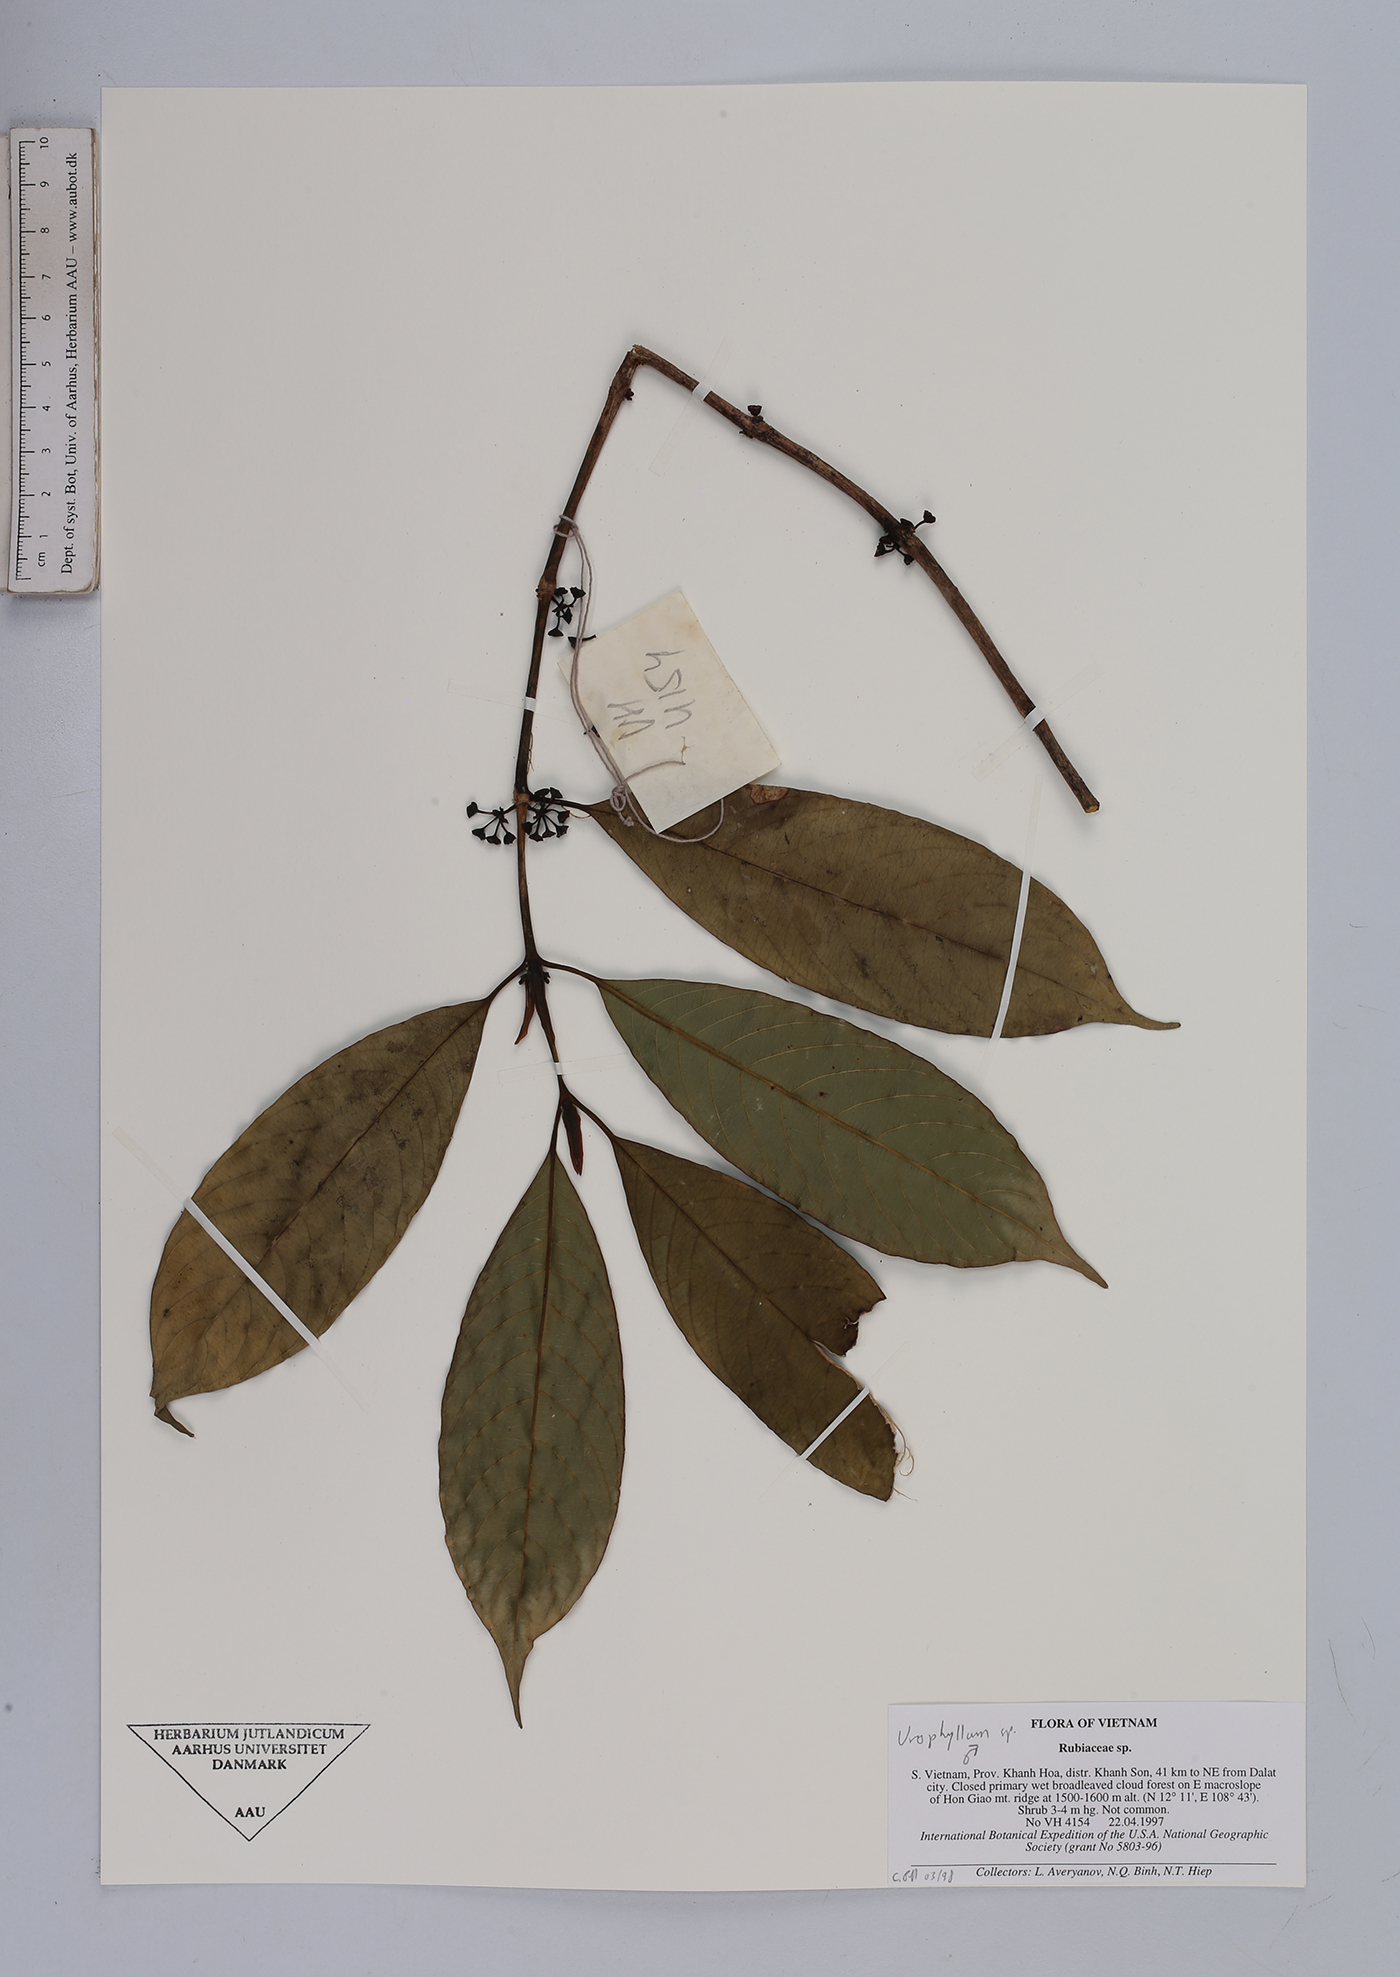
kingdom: Plantae
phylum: Tracheophyta
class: Magnoliopsida
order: Gentianales
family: Rubiaceae
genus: Urophyllum
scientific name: Urophyllum
